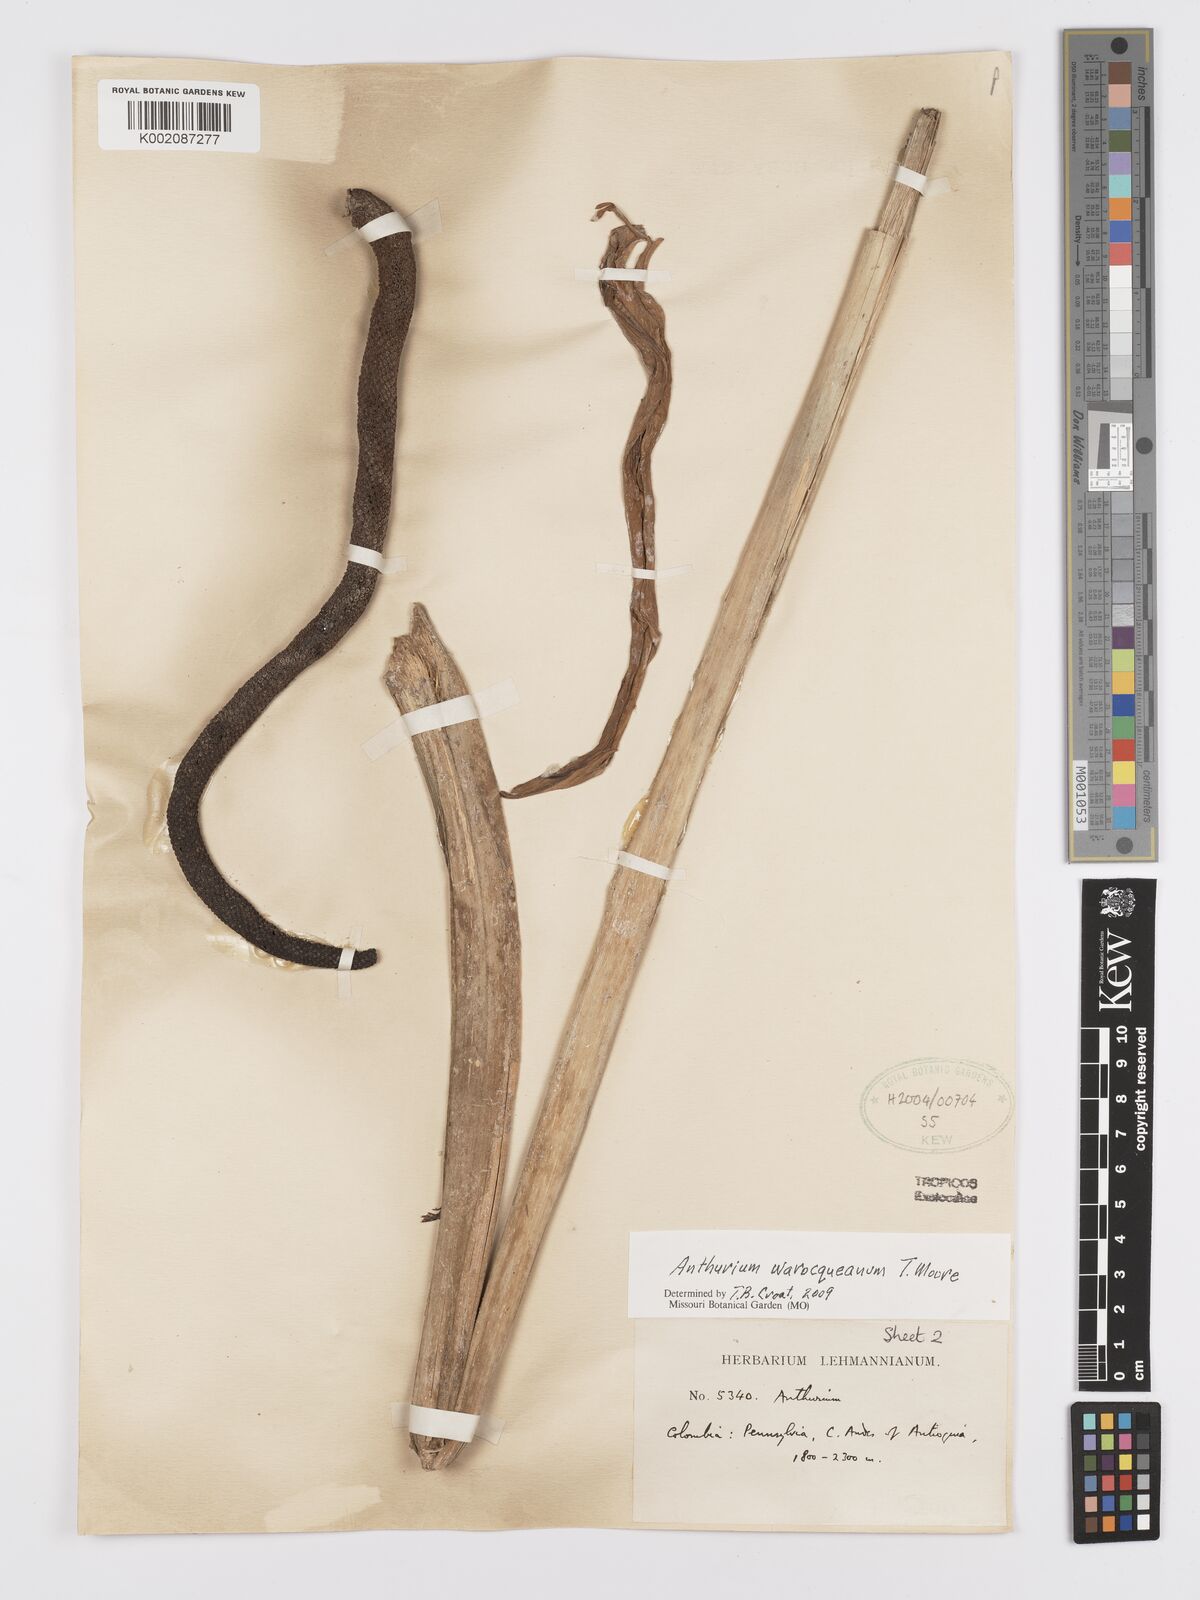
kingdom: Plantae
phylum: Tracheophyta
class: Liliopsida
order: Alismatales
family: Araceae
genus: Anthurium
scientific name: Anthurium warocqueanum
